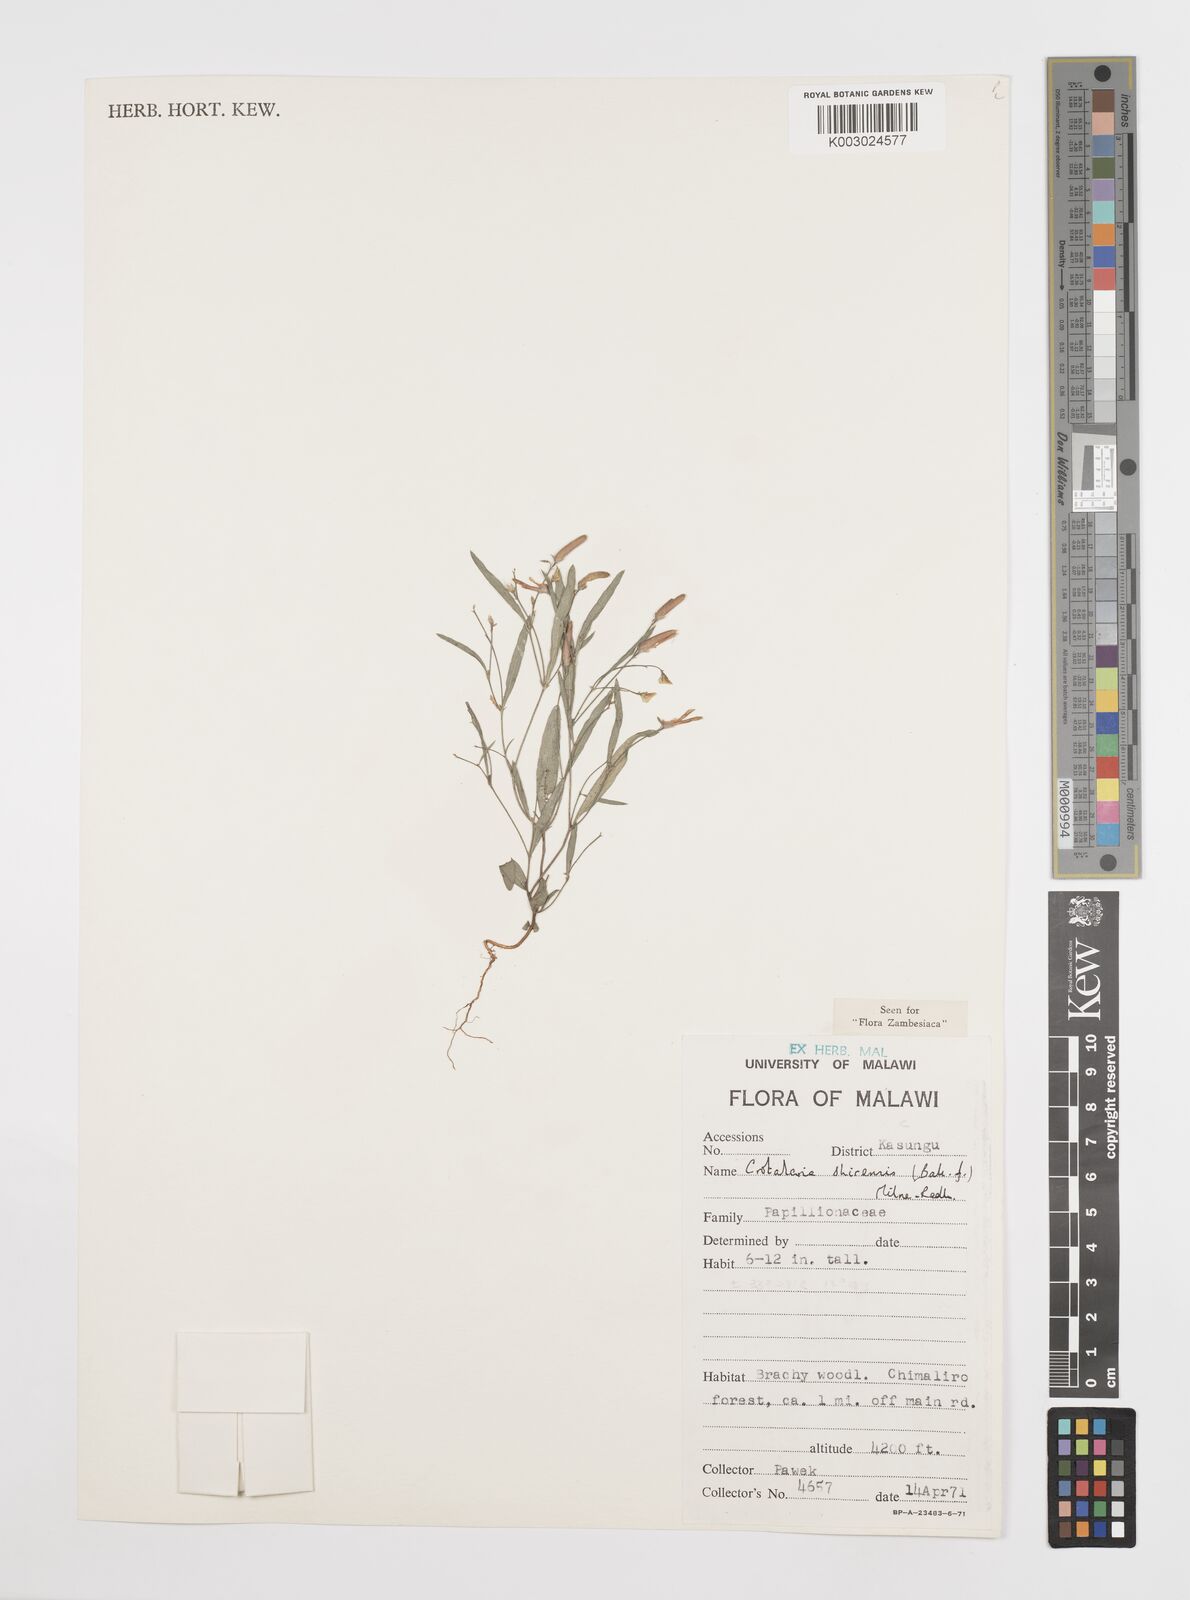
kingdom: Plantae
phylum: Tracheophyta
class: Magnoliopsida
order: Fabales
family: Fabaceae
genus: Crotalaria
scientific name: Crotalaria shirensis
